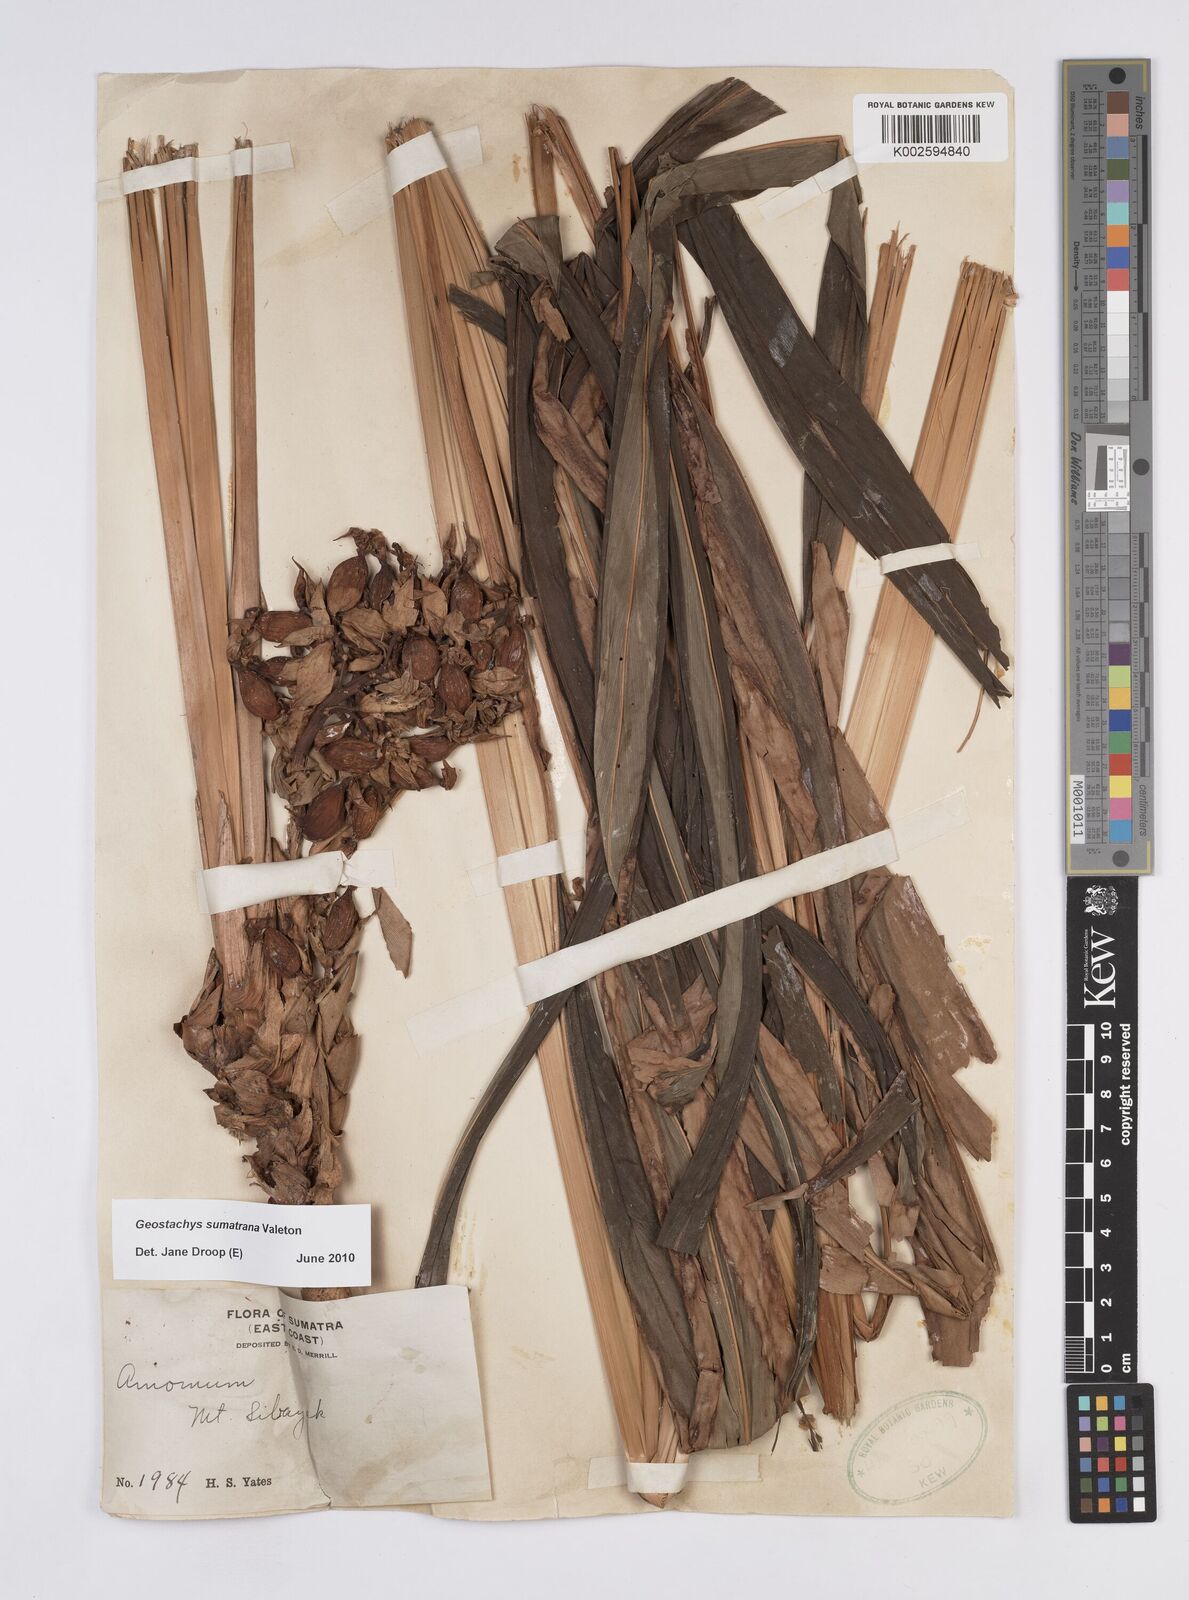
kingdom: Plantae
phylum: Tracheophyta
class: Liliopsida
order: Zingiberales
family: Zingiberaceae
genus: Geostachys
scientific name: Geostachys sumatrana
